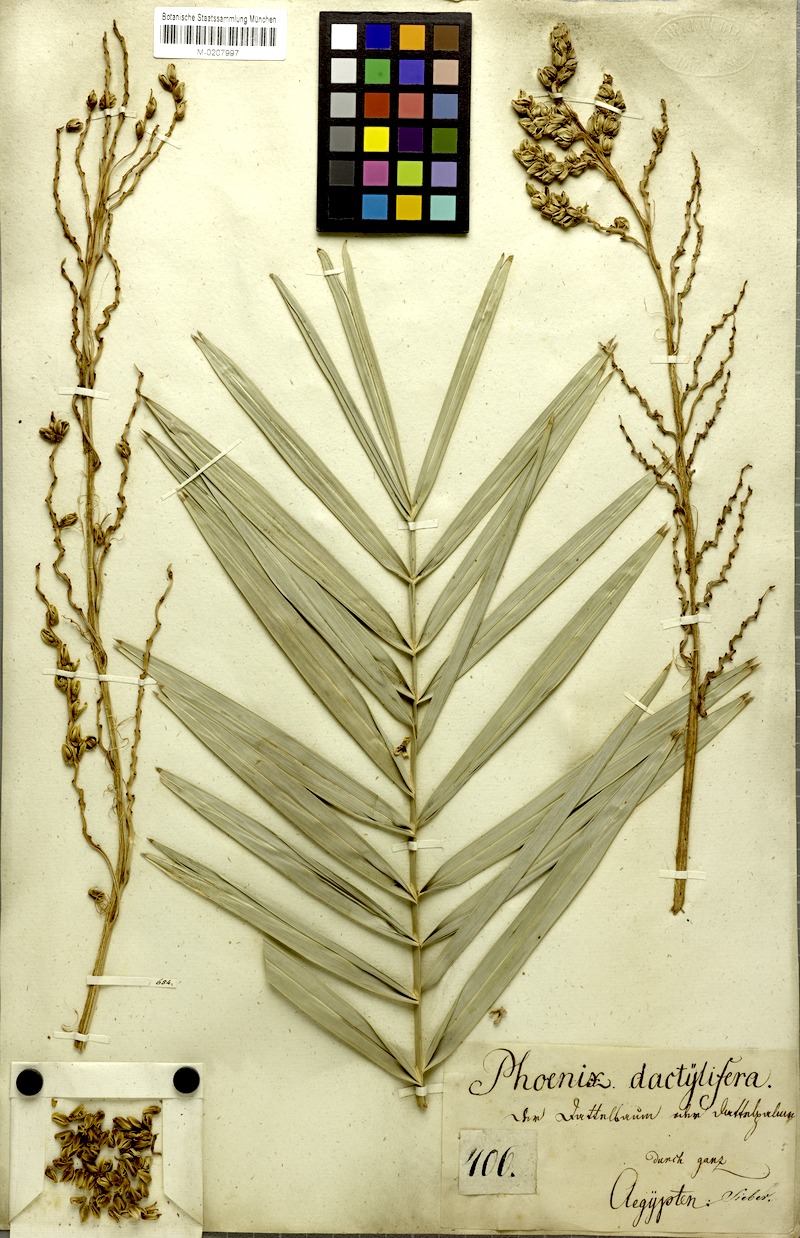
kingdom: Plantae
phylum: Tracheophyta
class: Liliopsida
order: Arecales
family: Arecaceae
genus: Phoenix
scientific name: Phoenix dactylifera
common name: Date palm
